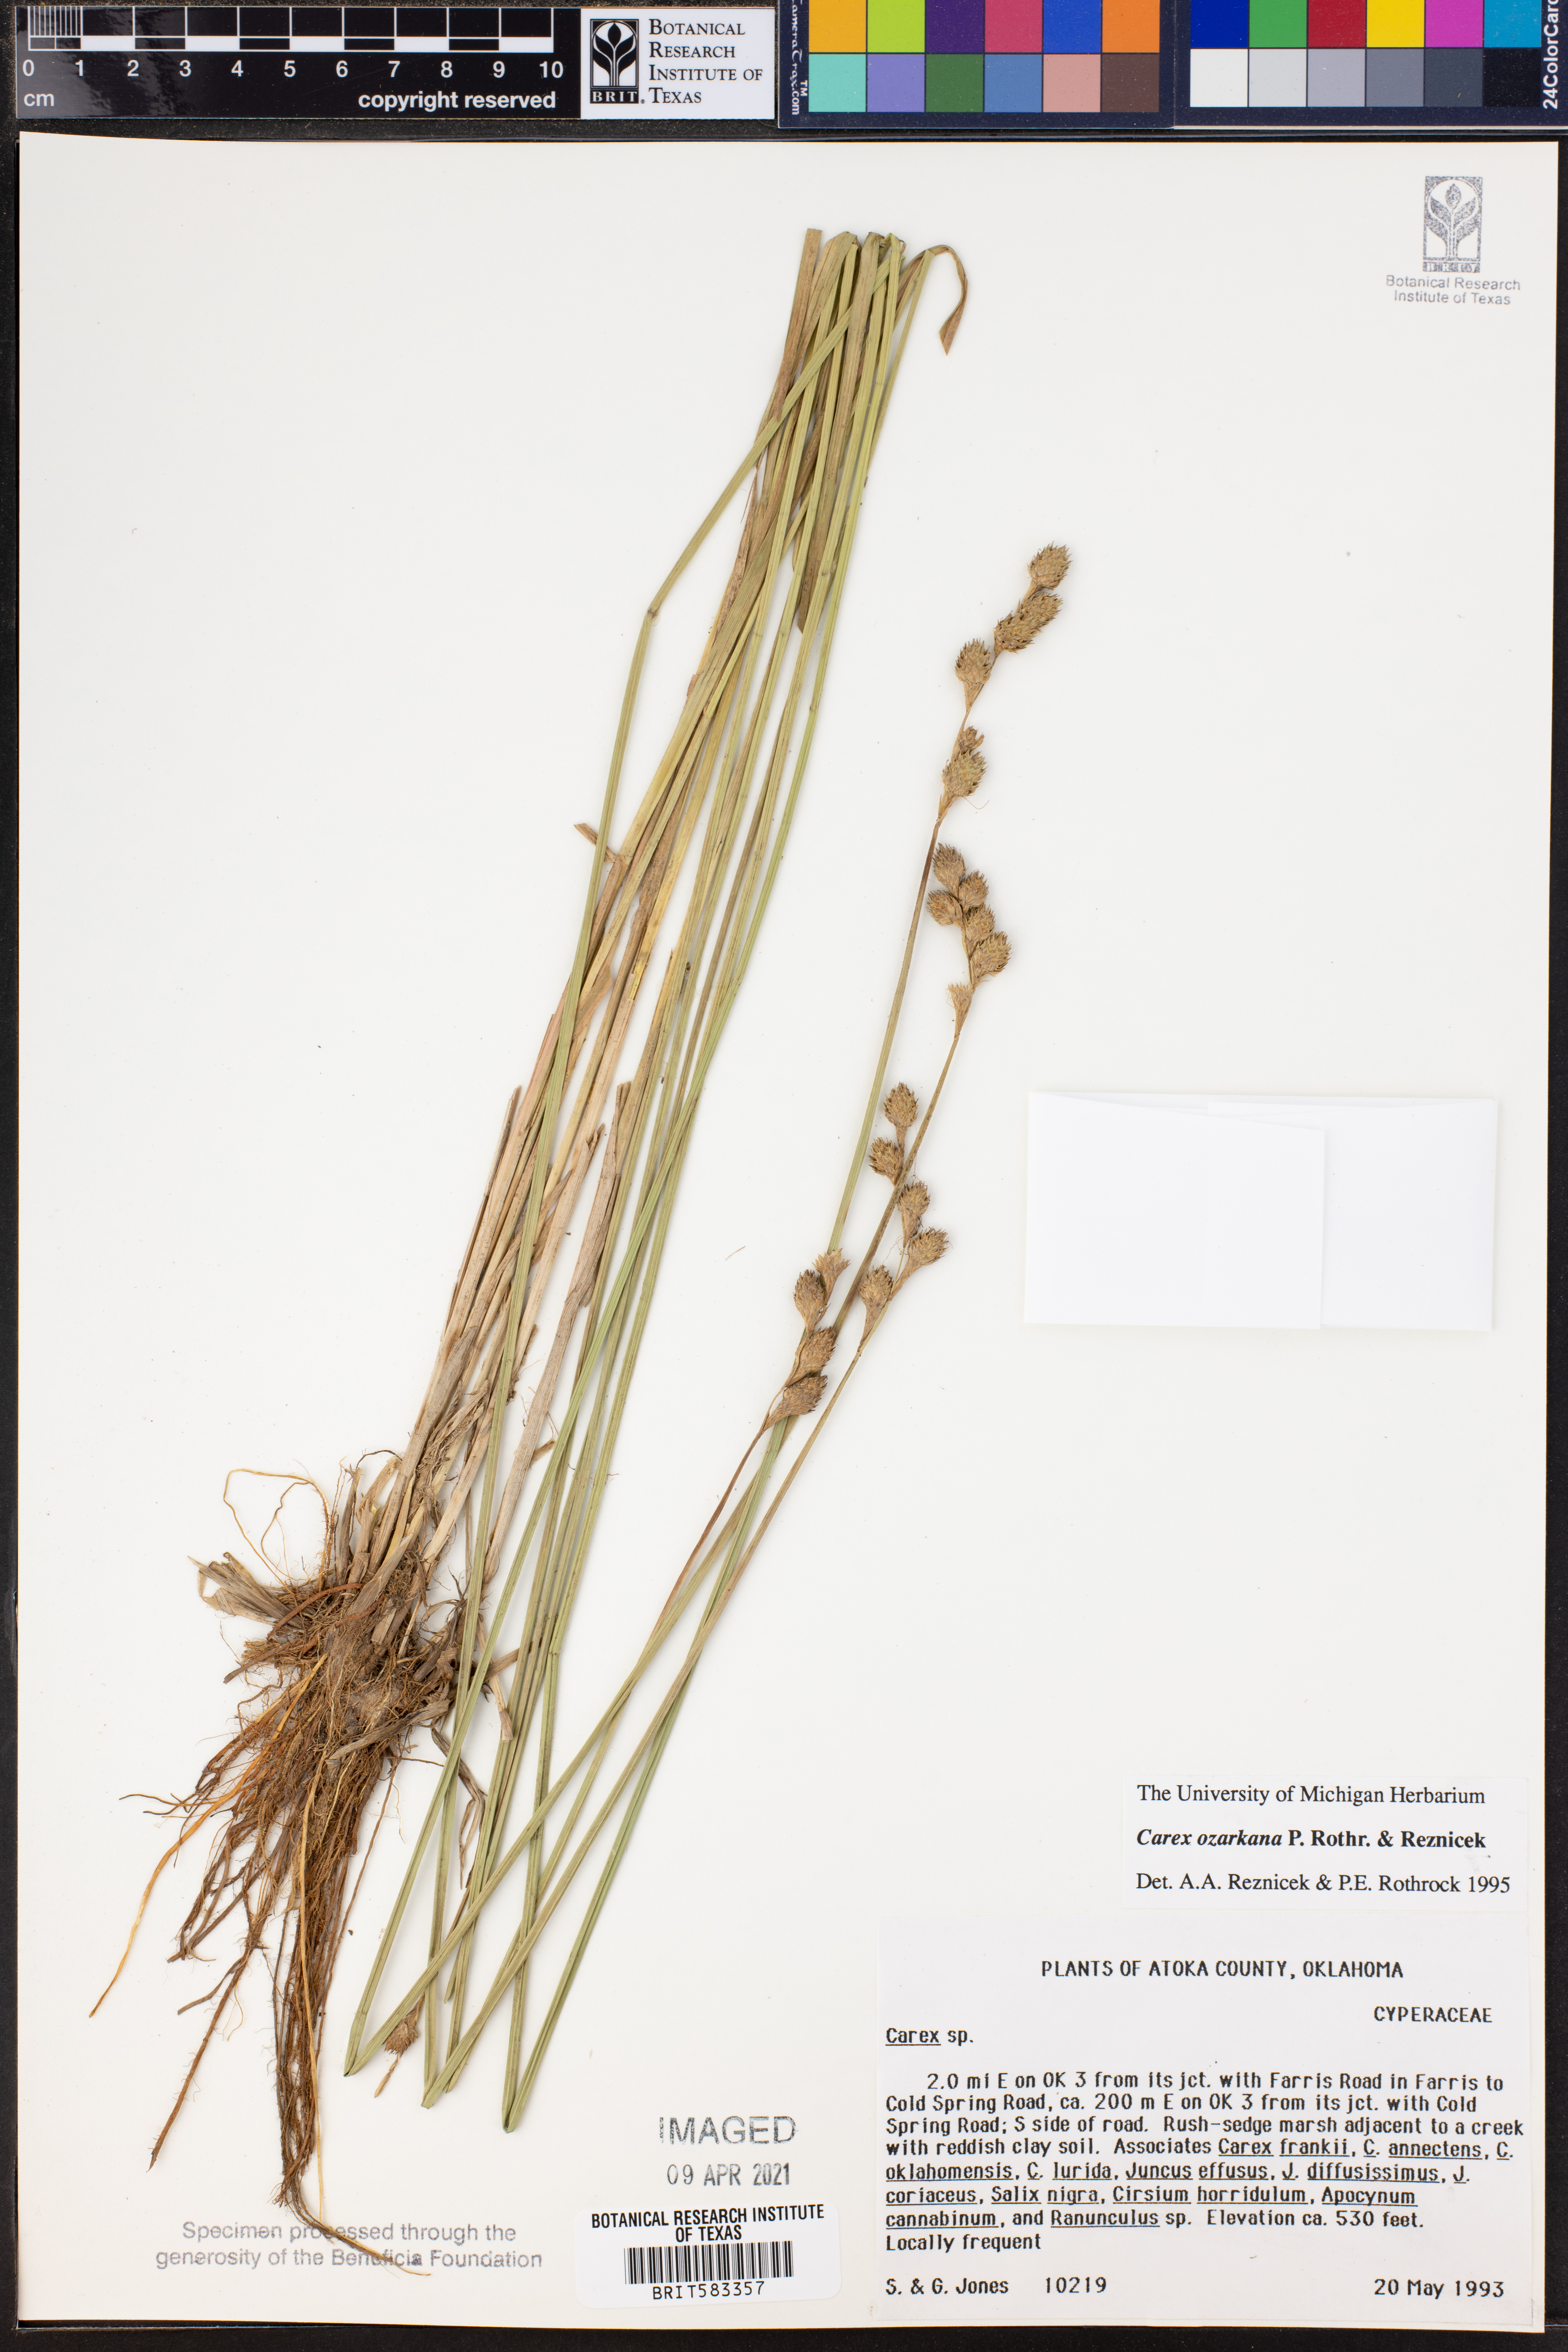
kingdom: Plantae
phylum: Tracheophyta
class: Liliopsida
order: Poales
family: Cyperaceae
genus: Carex
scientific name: Carex ozarkana
